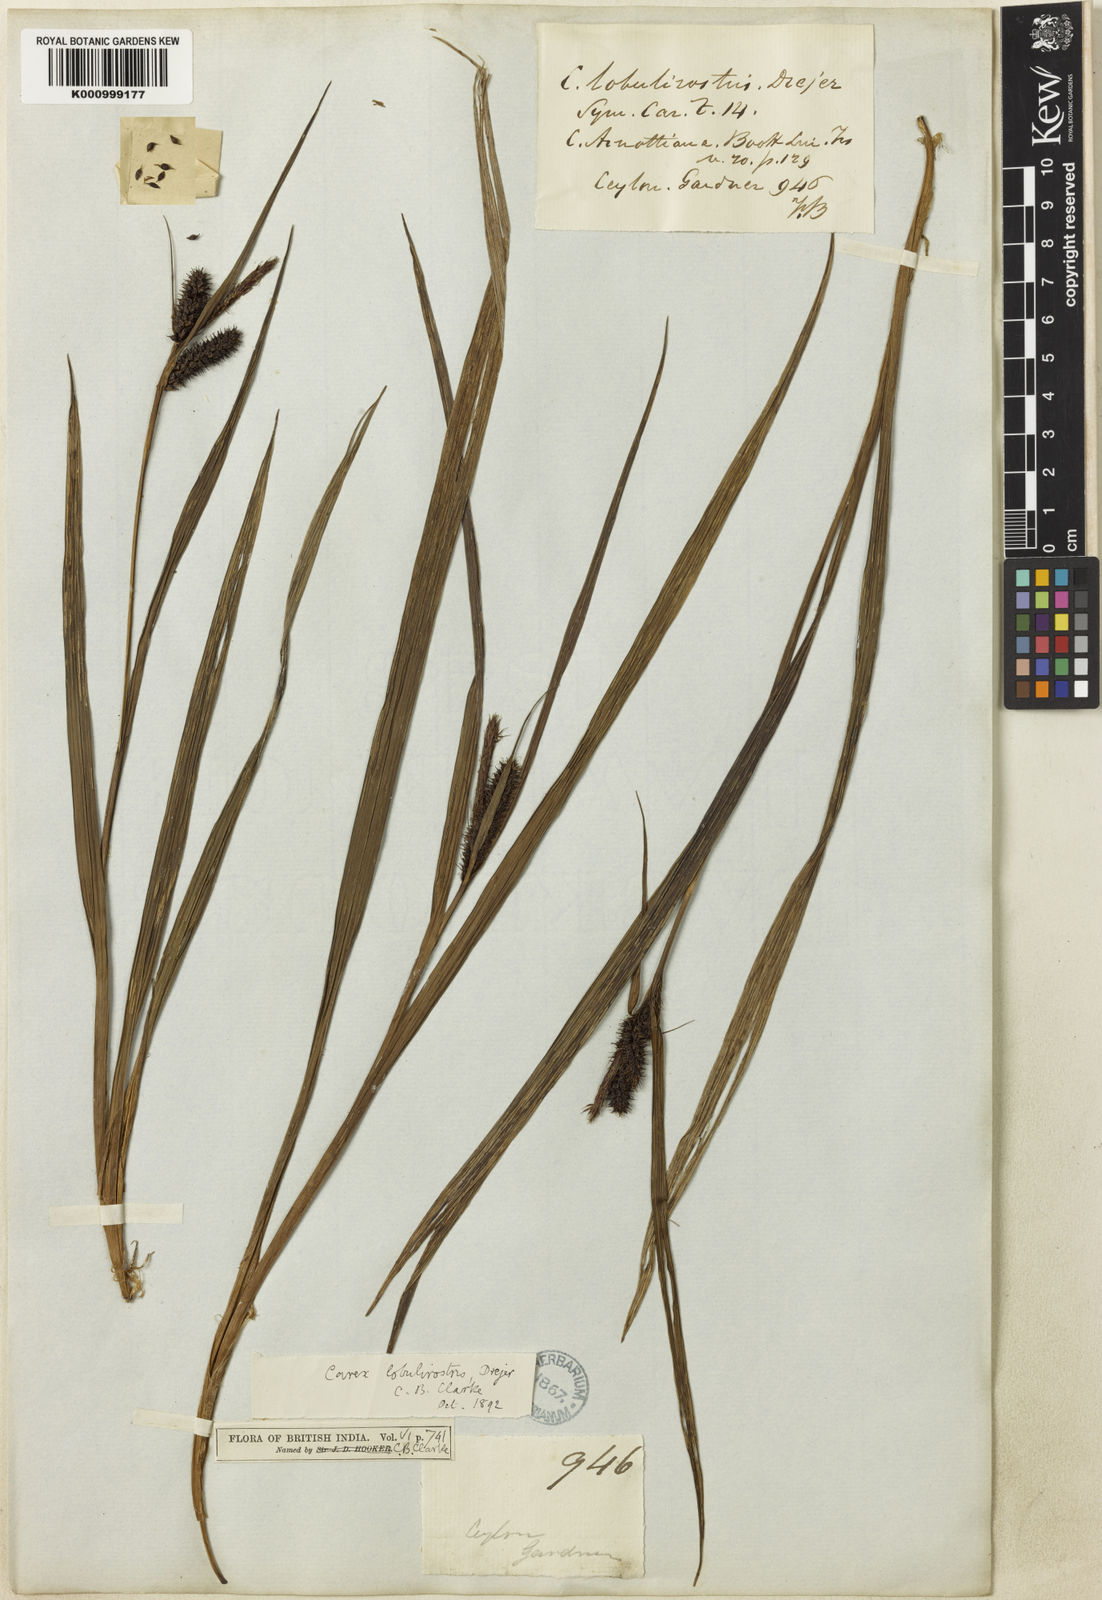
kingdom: Plantae
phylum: Tracheophyta
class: Liliopsida
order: Poales
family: Cyperaceae
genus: Carex
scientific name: Carex lobulirostris
